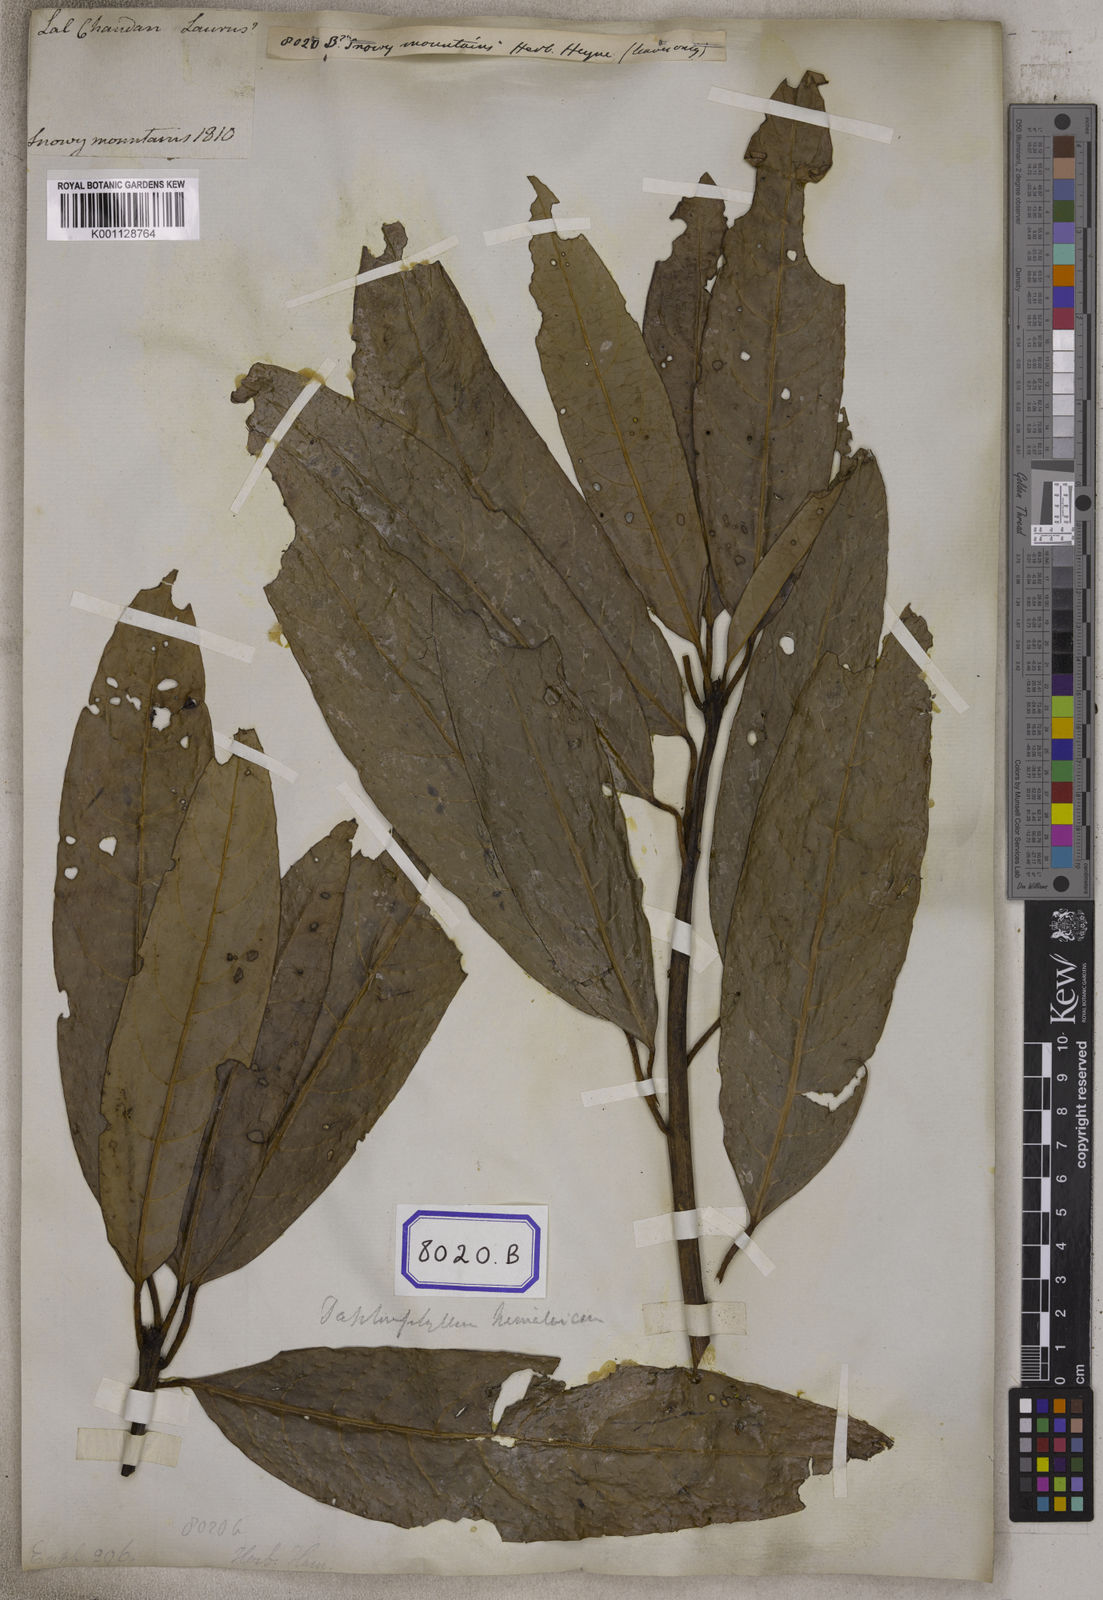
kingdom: Plantae
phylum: Tracheophyta
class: Magnoliopsida
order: Malpighiales
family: Euphorbiaceae
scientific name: Euphorbiaceae
